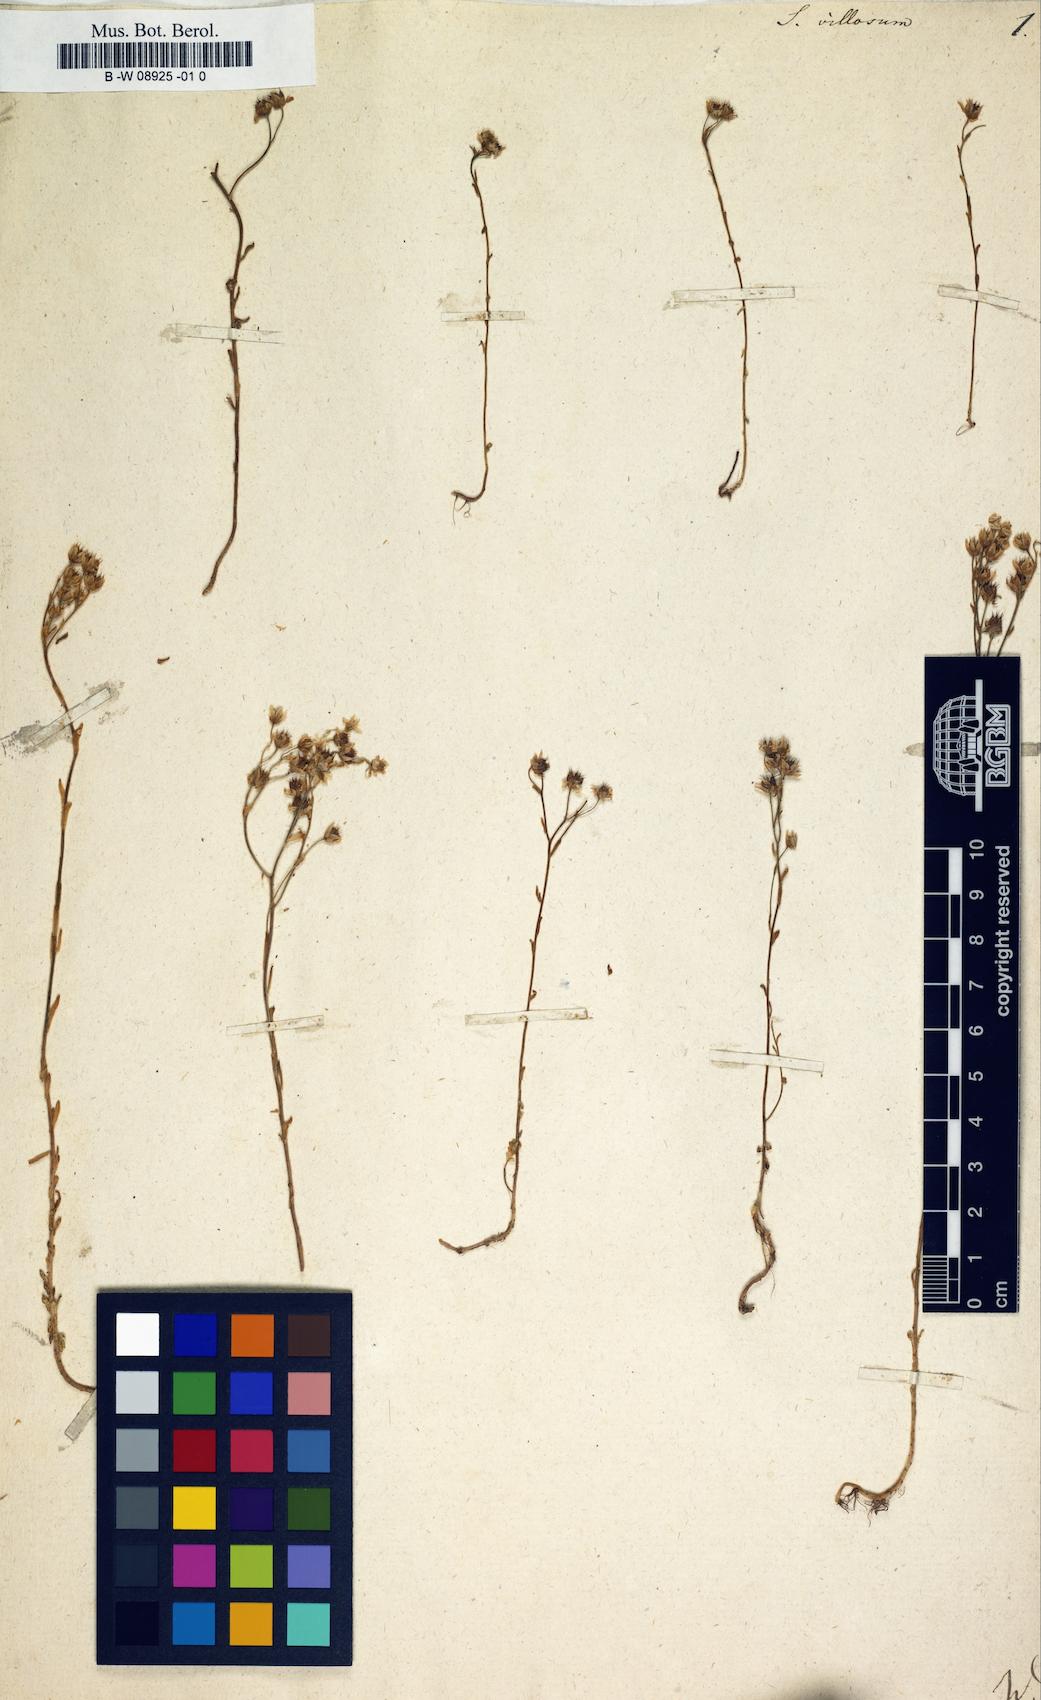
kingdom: Plantae
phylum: Tracheophyta
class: Magnoliopsida
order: Saxifragales
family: Crassulaceae
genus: Sedum
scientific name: Sedum villosum
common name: Hairy stonecrop
